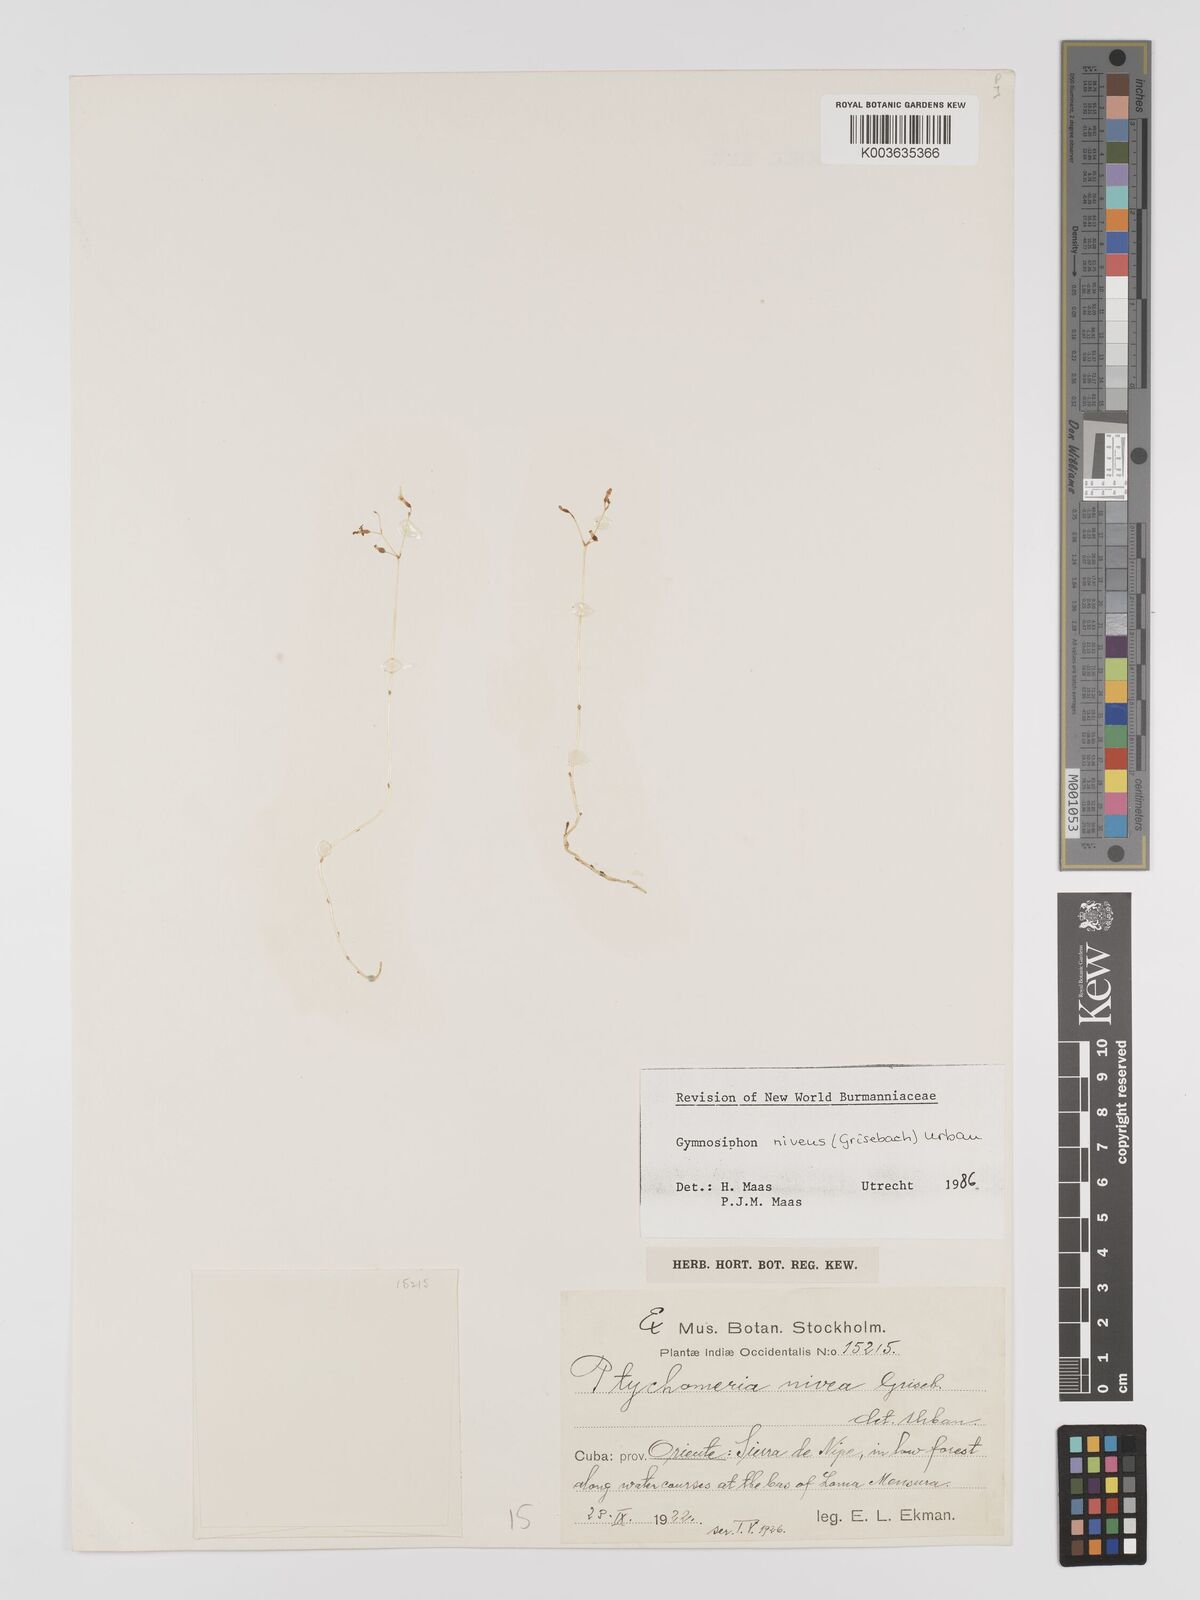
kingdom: Plantae
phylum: Tracheophyta
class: Liliopsida
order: Dioscoreales
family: Burmanniaceae
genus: Gymnosiphon
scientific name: Gymnosiphon niveus
